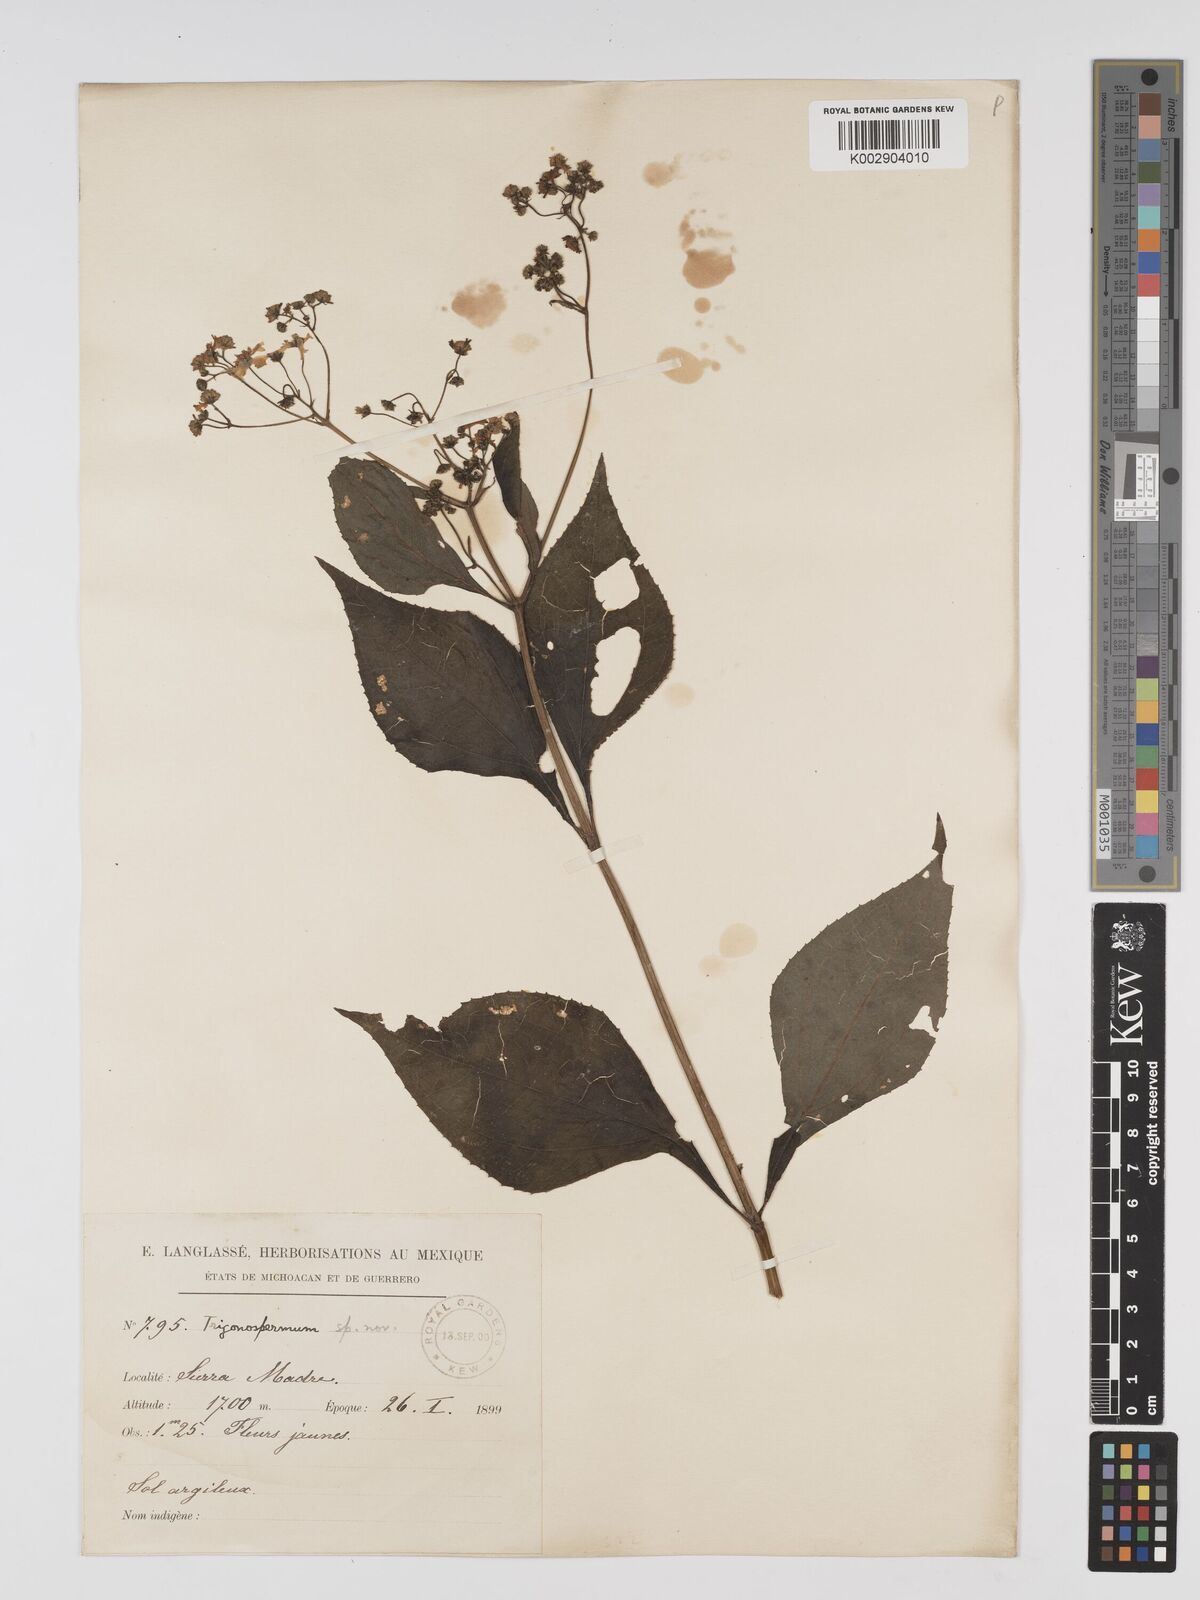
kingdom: Plantae
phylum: Tracheophyta
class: Magnoliopsida
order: Asterales
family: Asteraceae
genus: Trigonospermum
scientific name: Trigonospermum melampodioides
